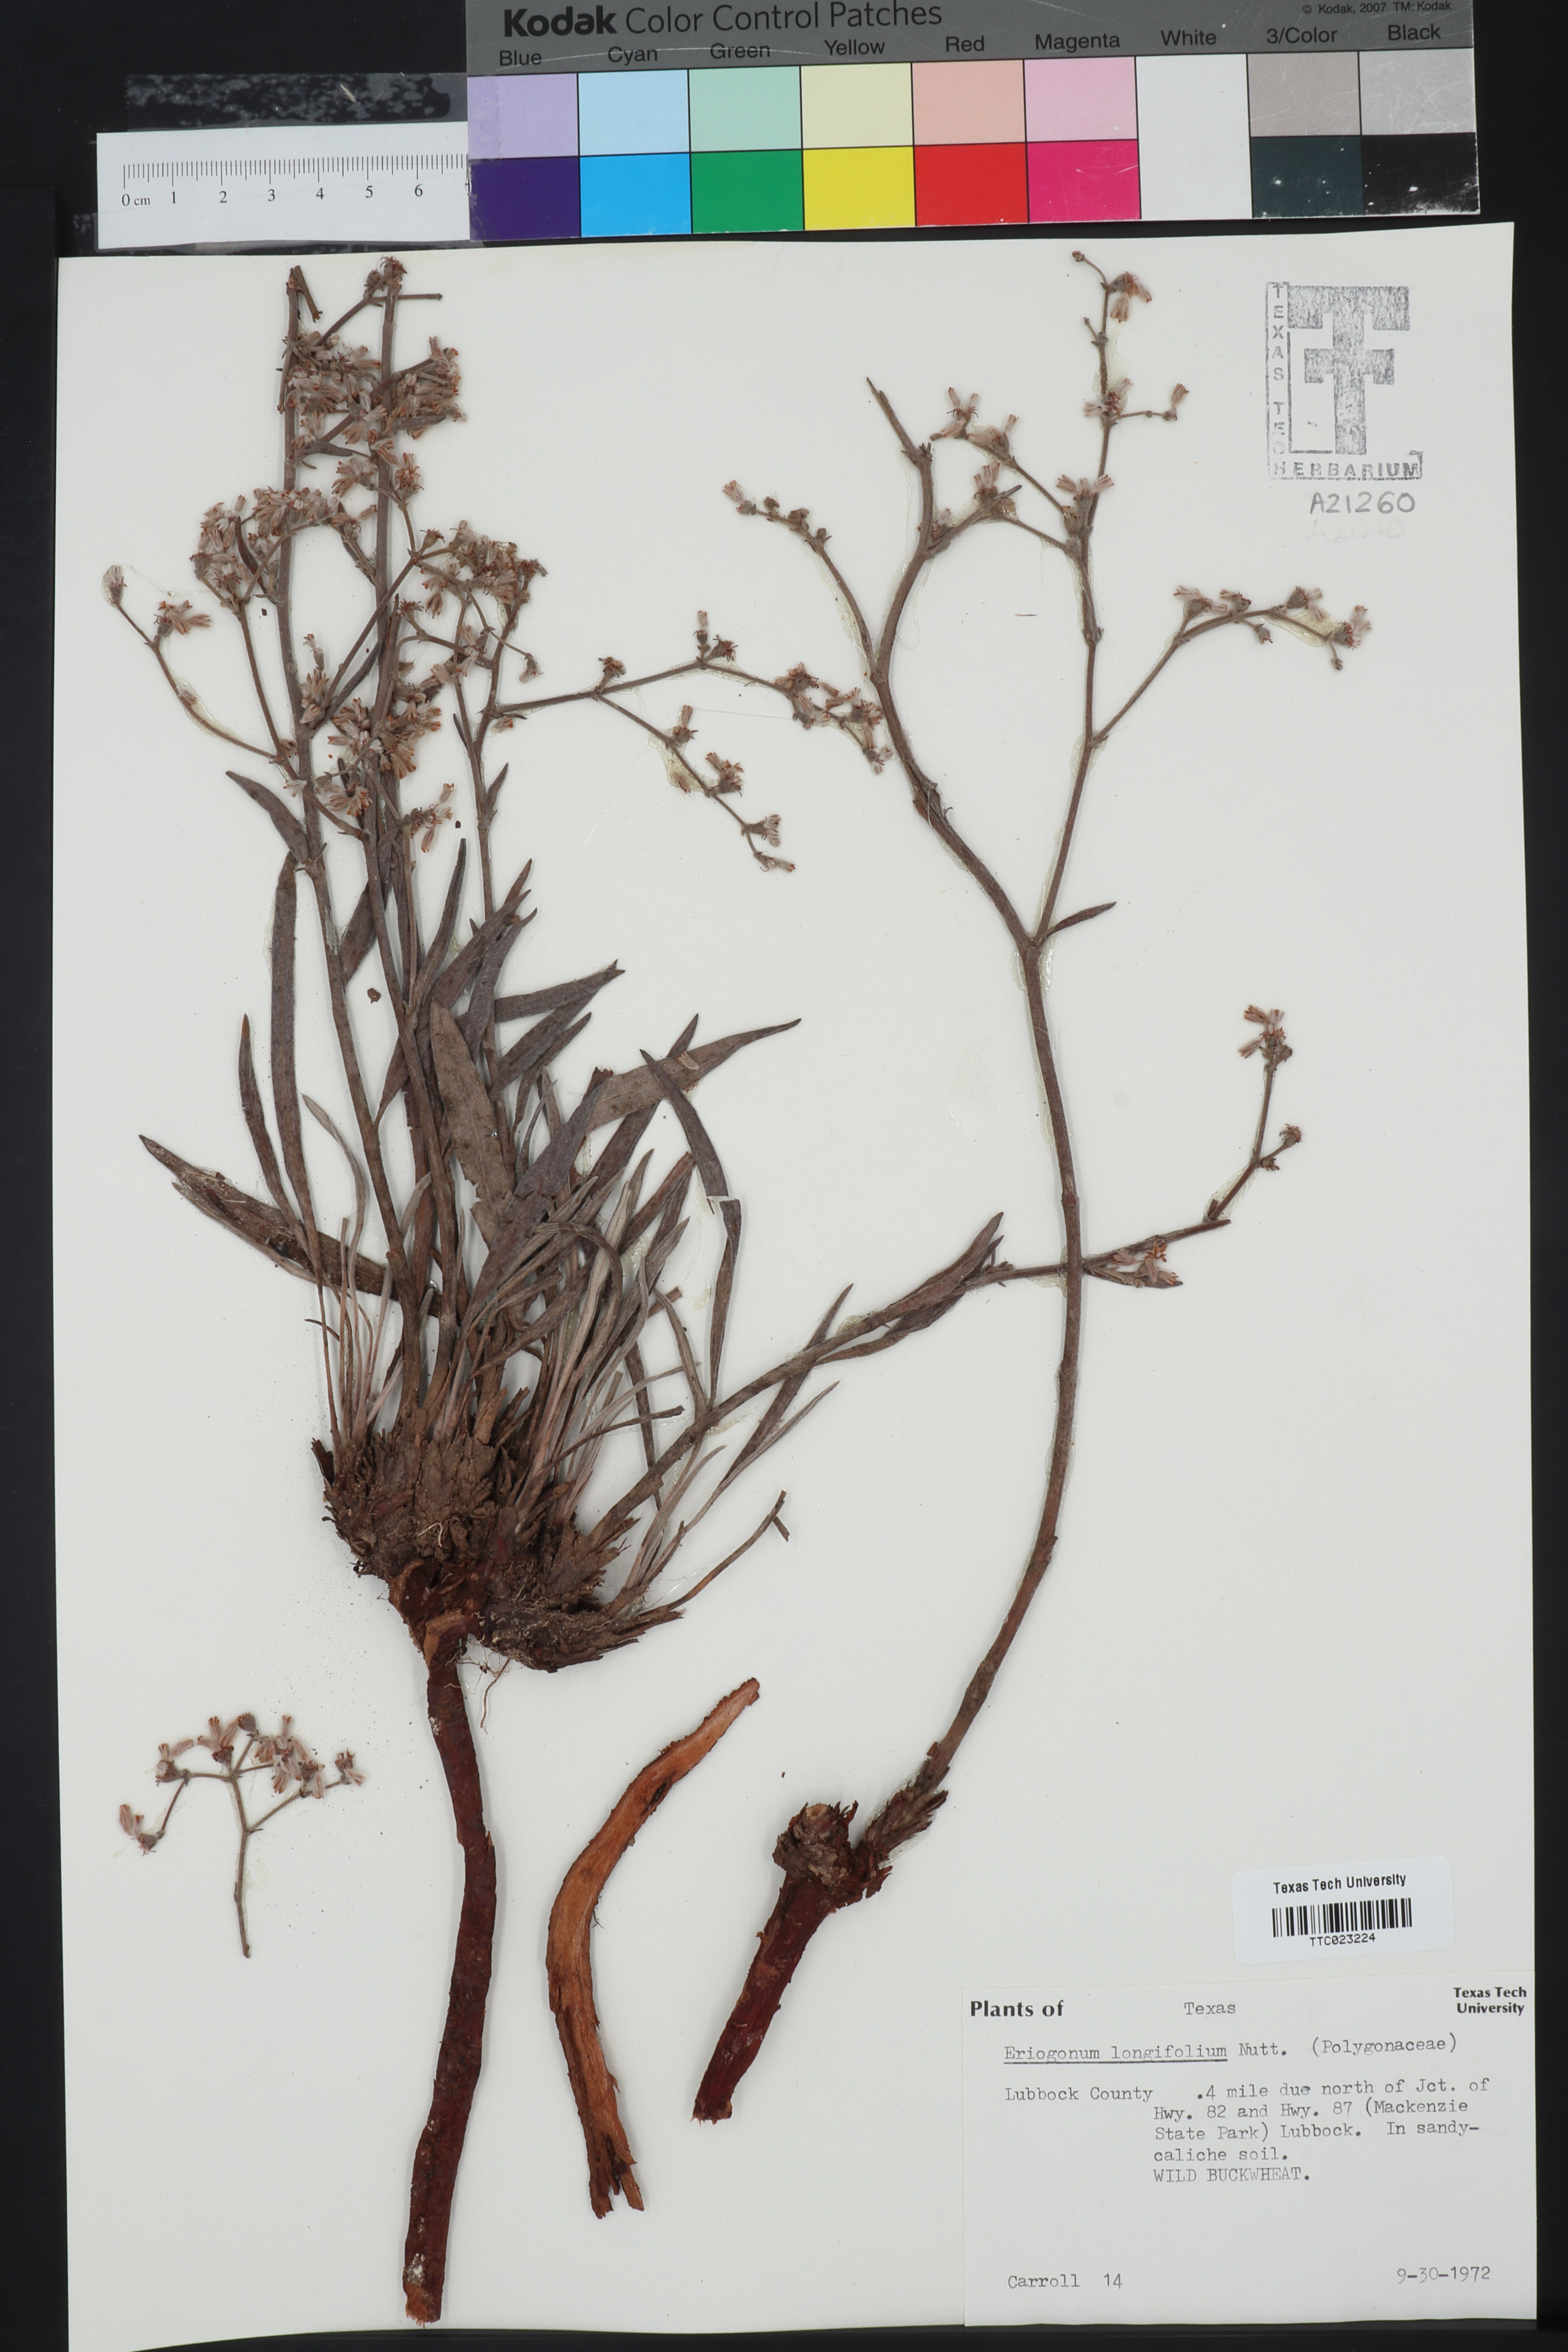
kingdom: Plantae
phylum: Tracheophyta
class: Magnoliopsida
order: Caryophyllales
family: Polygonaceae
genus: Eriogonum
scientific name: Eriogonum longifolium
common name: Longleaf wild buckwheat
